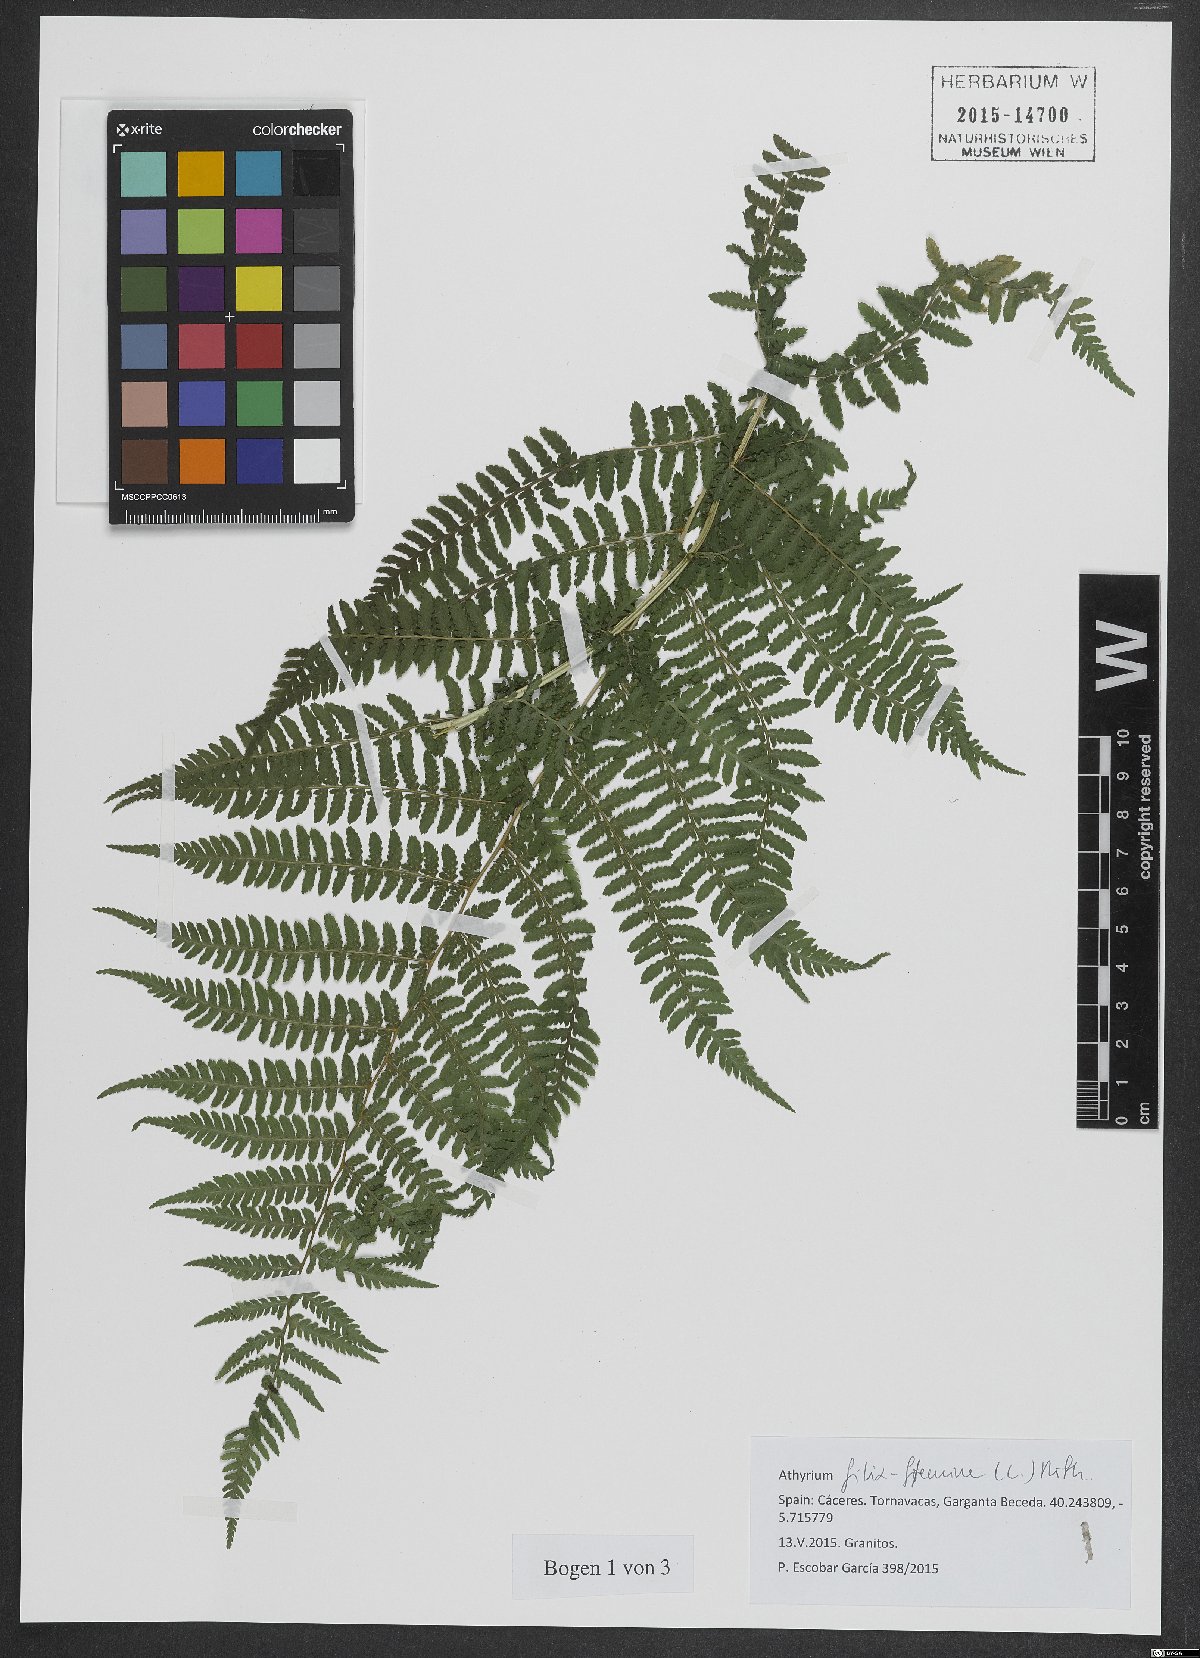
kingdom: Plantae
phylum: Tracheophyta
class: Polypodiopsida
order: Polypodiales
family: Athyriaceae
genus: Athyrium
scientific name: Athyrium filix-femina
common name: Lady fern
